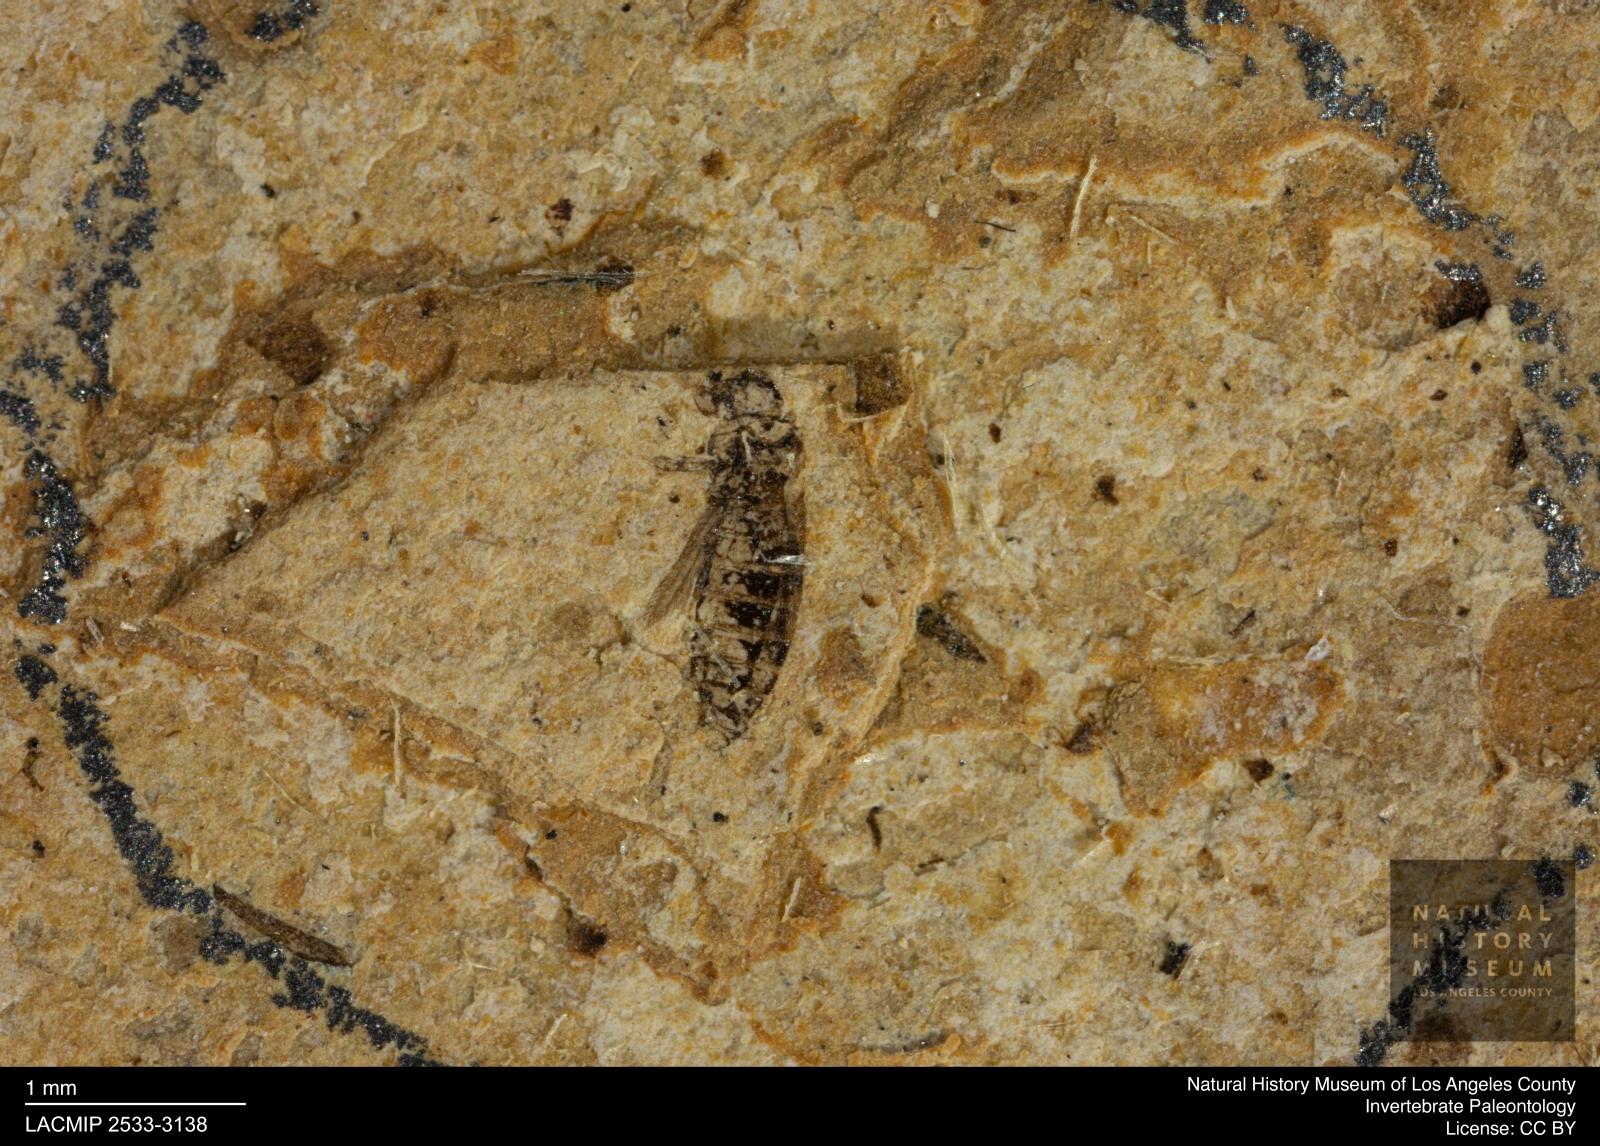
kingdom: Animalia
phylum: Arthropoda
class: Insecta
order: Thysanoptera
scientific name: Thysanoptera
